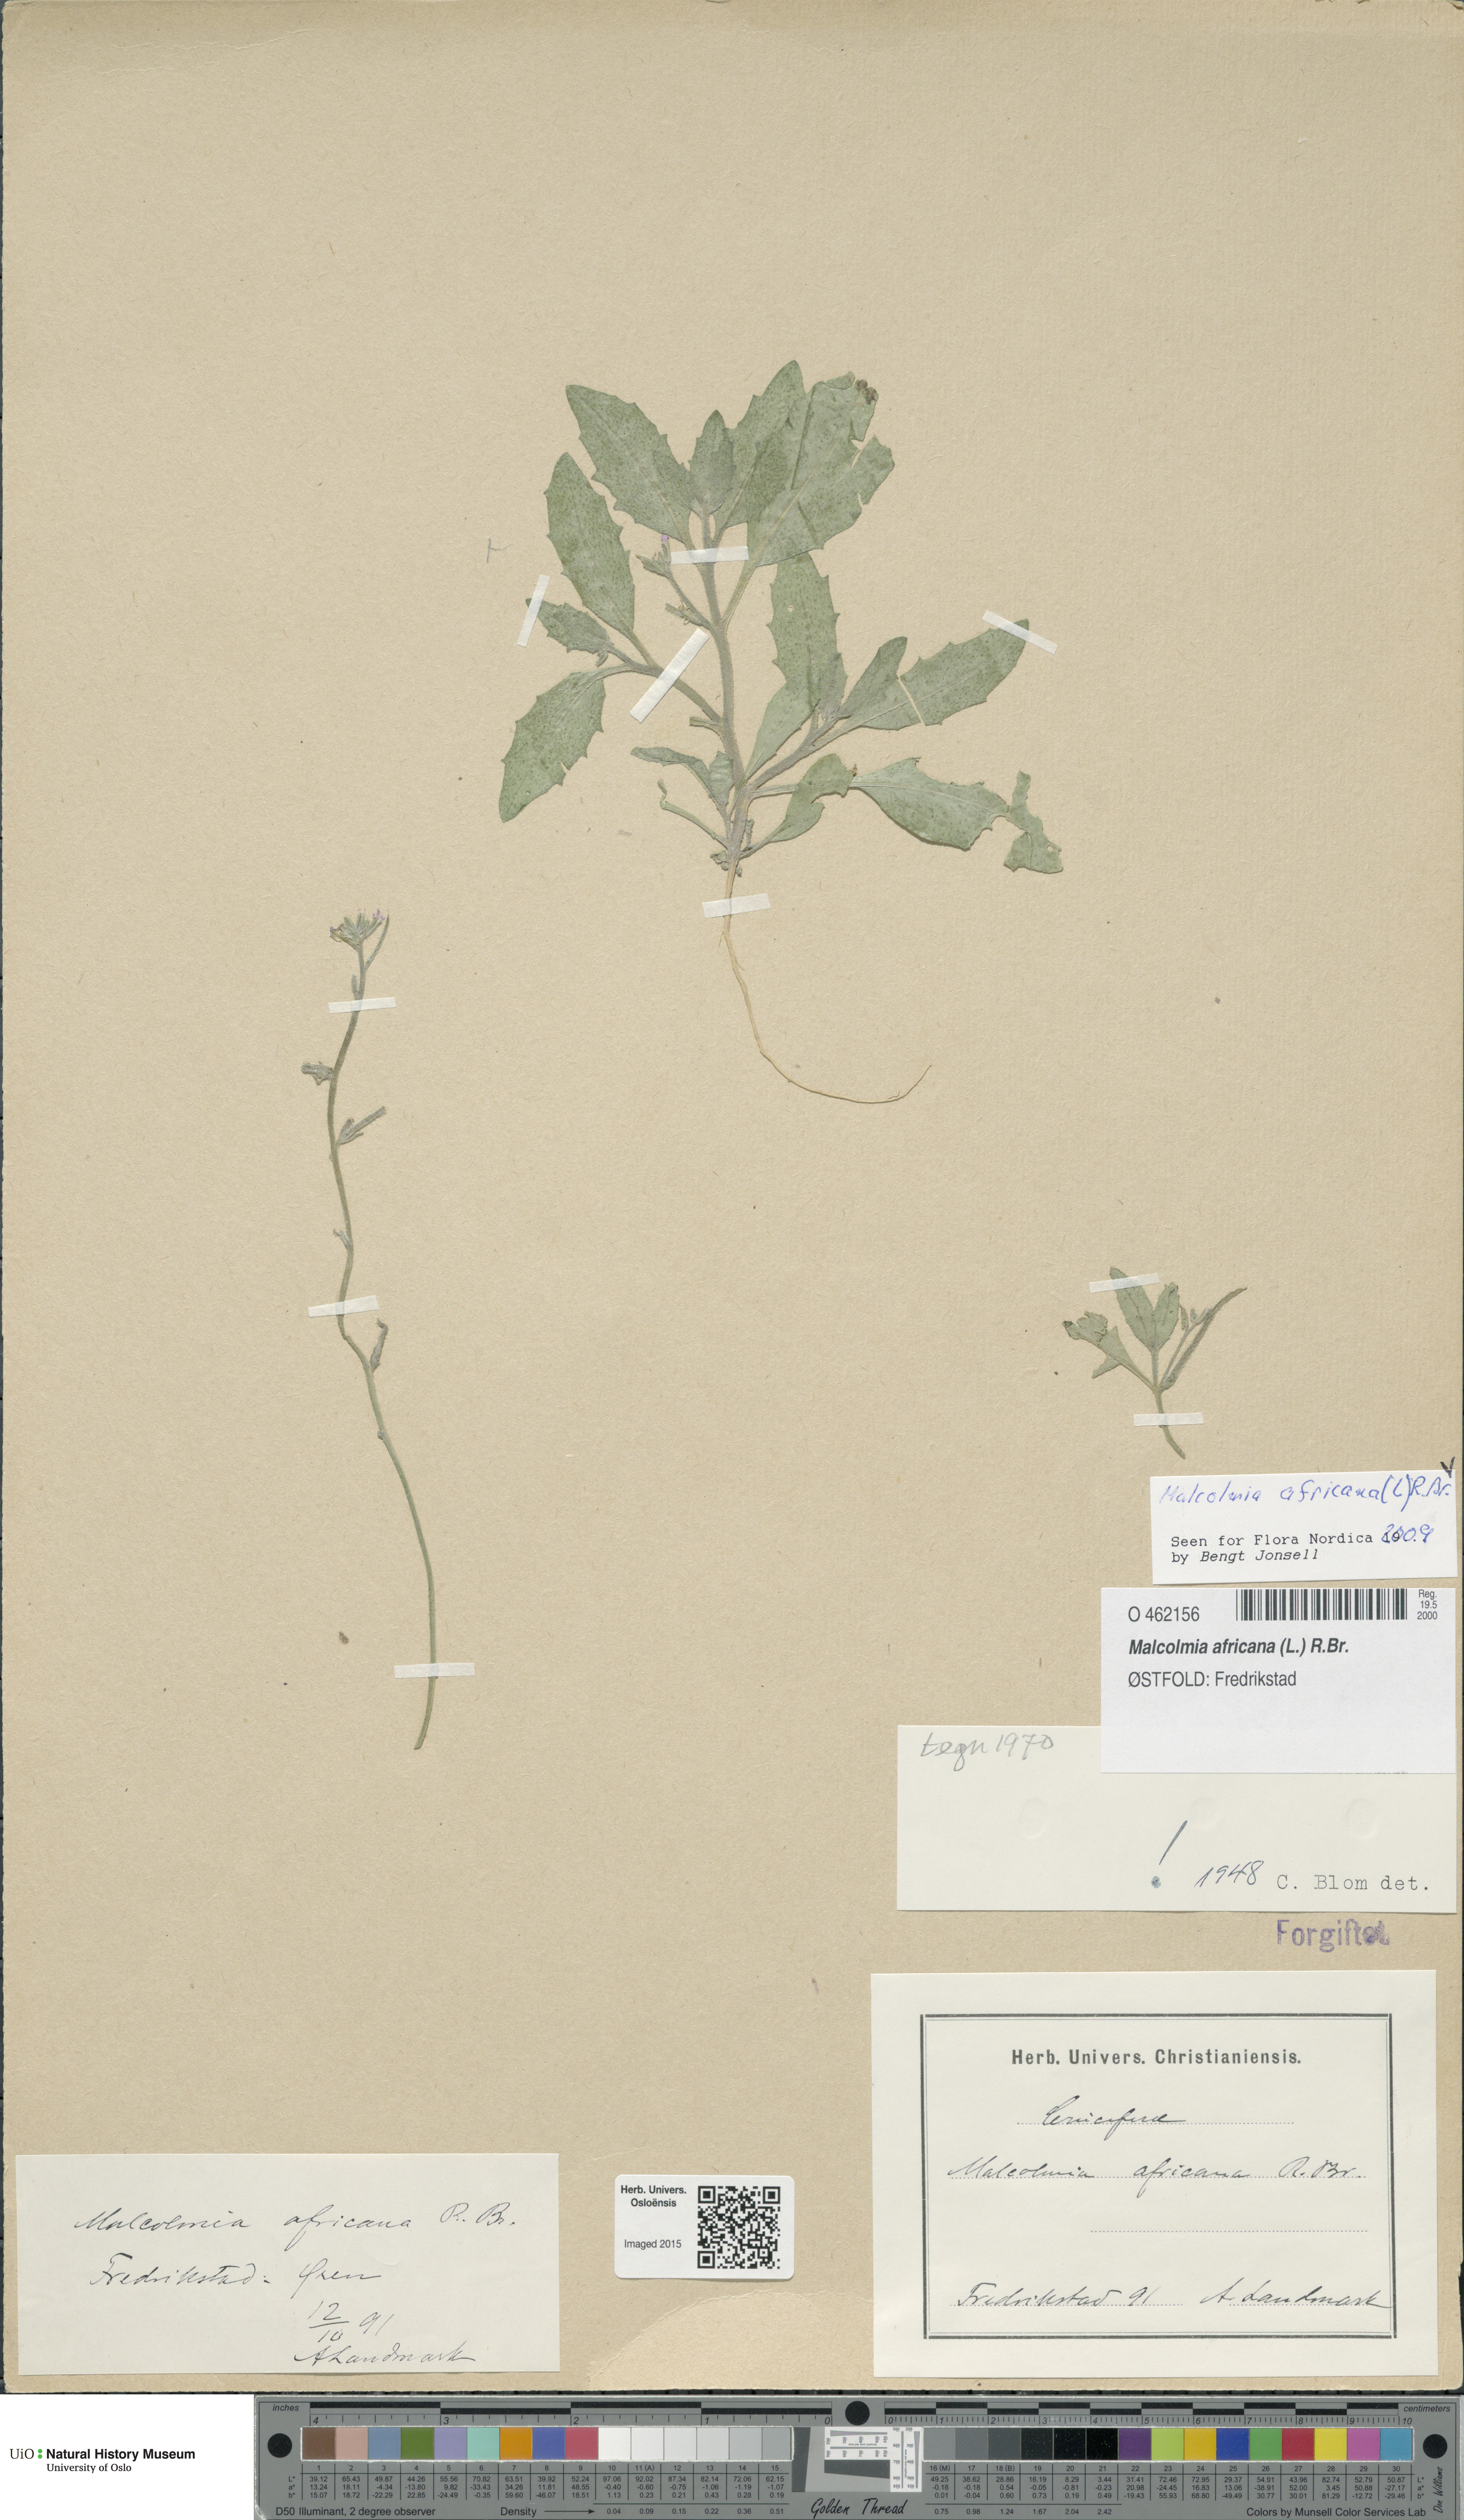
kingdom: Plantae
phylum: Tracheophyta
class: Magnoliopsida
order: Brassicales
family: Brassicaceae
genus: Strigosella
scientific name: Strigosella africana
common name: African mustard
